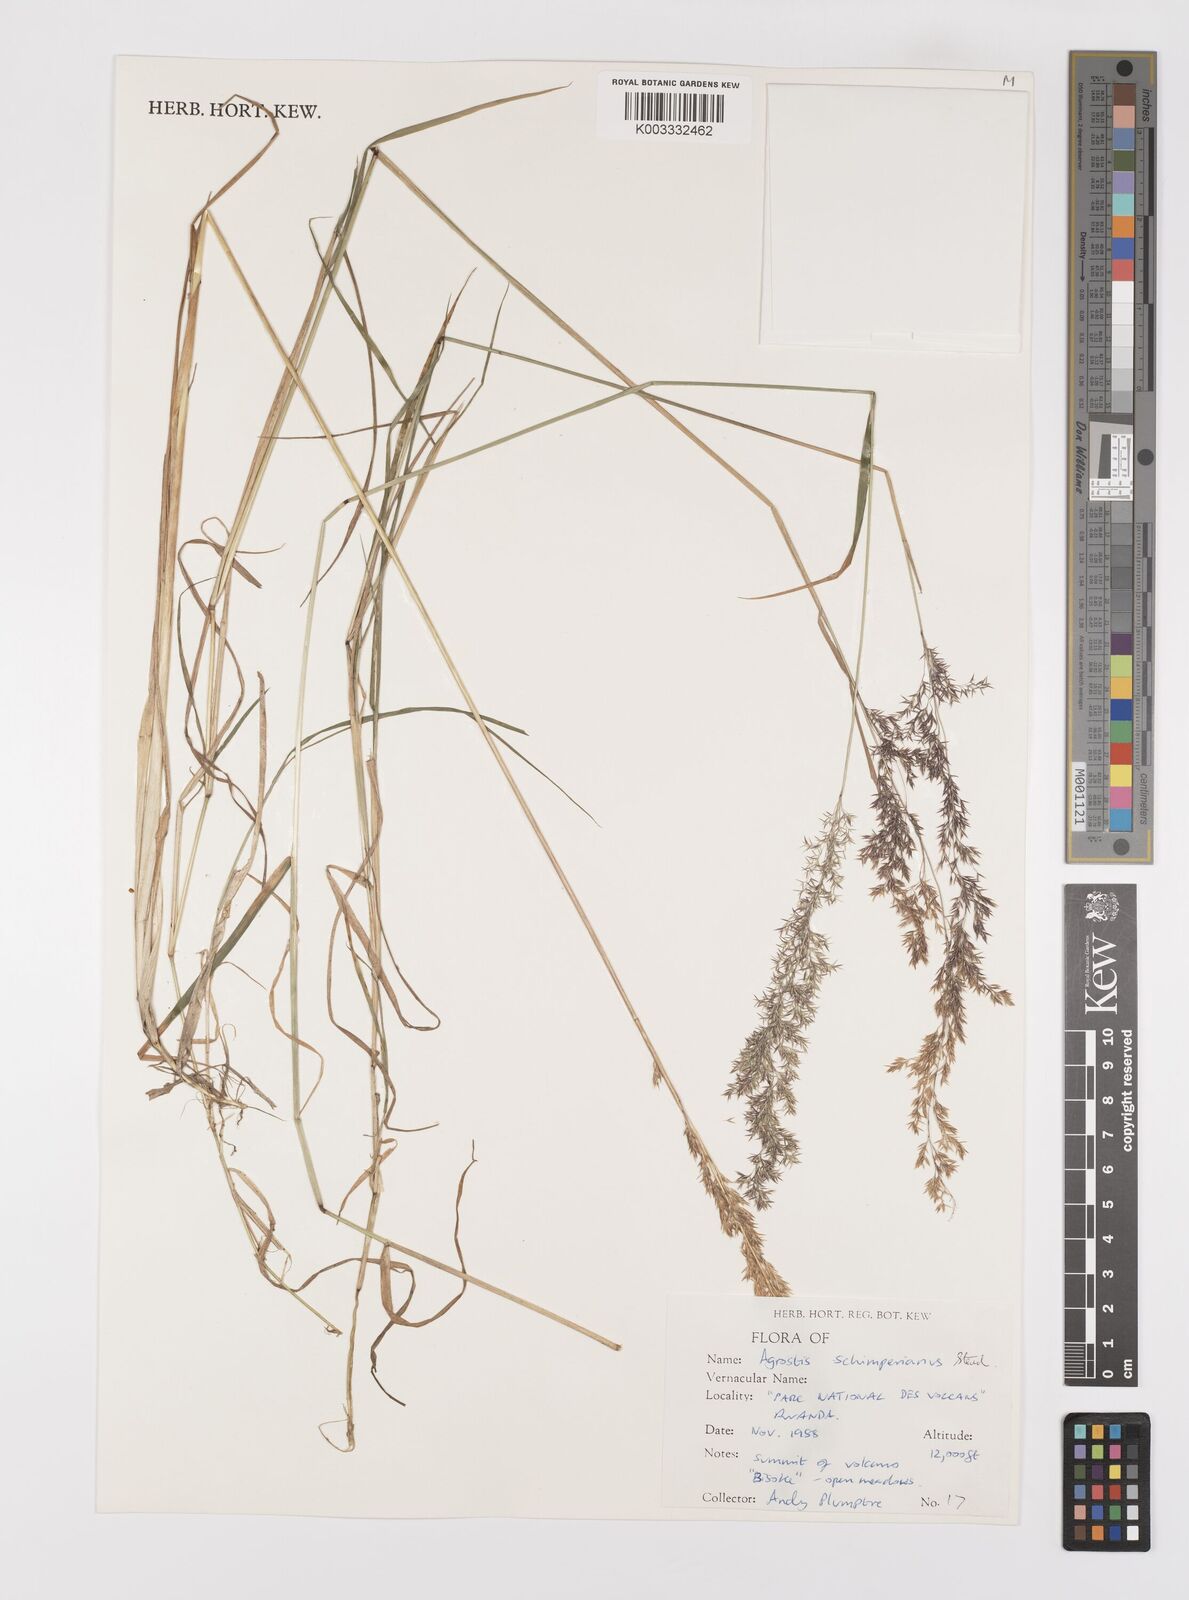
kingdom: Plantae
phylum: Tracheophyta
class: Liliopsida
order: Poales
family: Poaceae
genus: Polypogon
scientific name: Polypogon schimperianus
